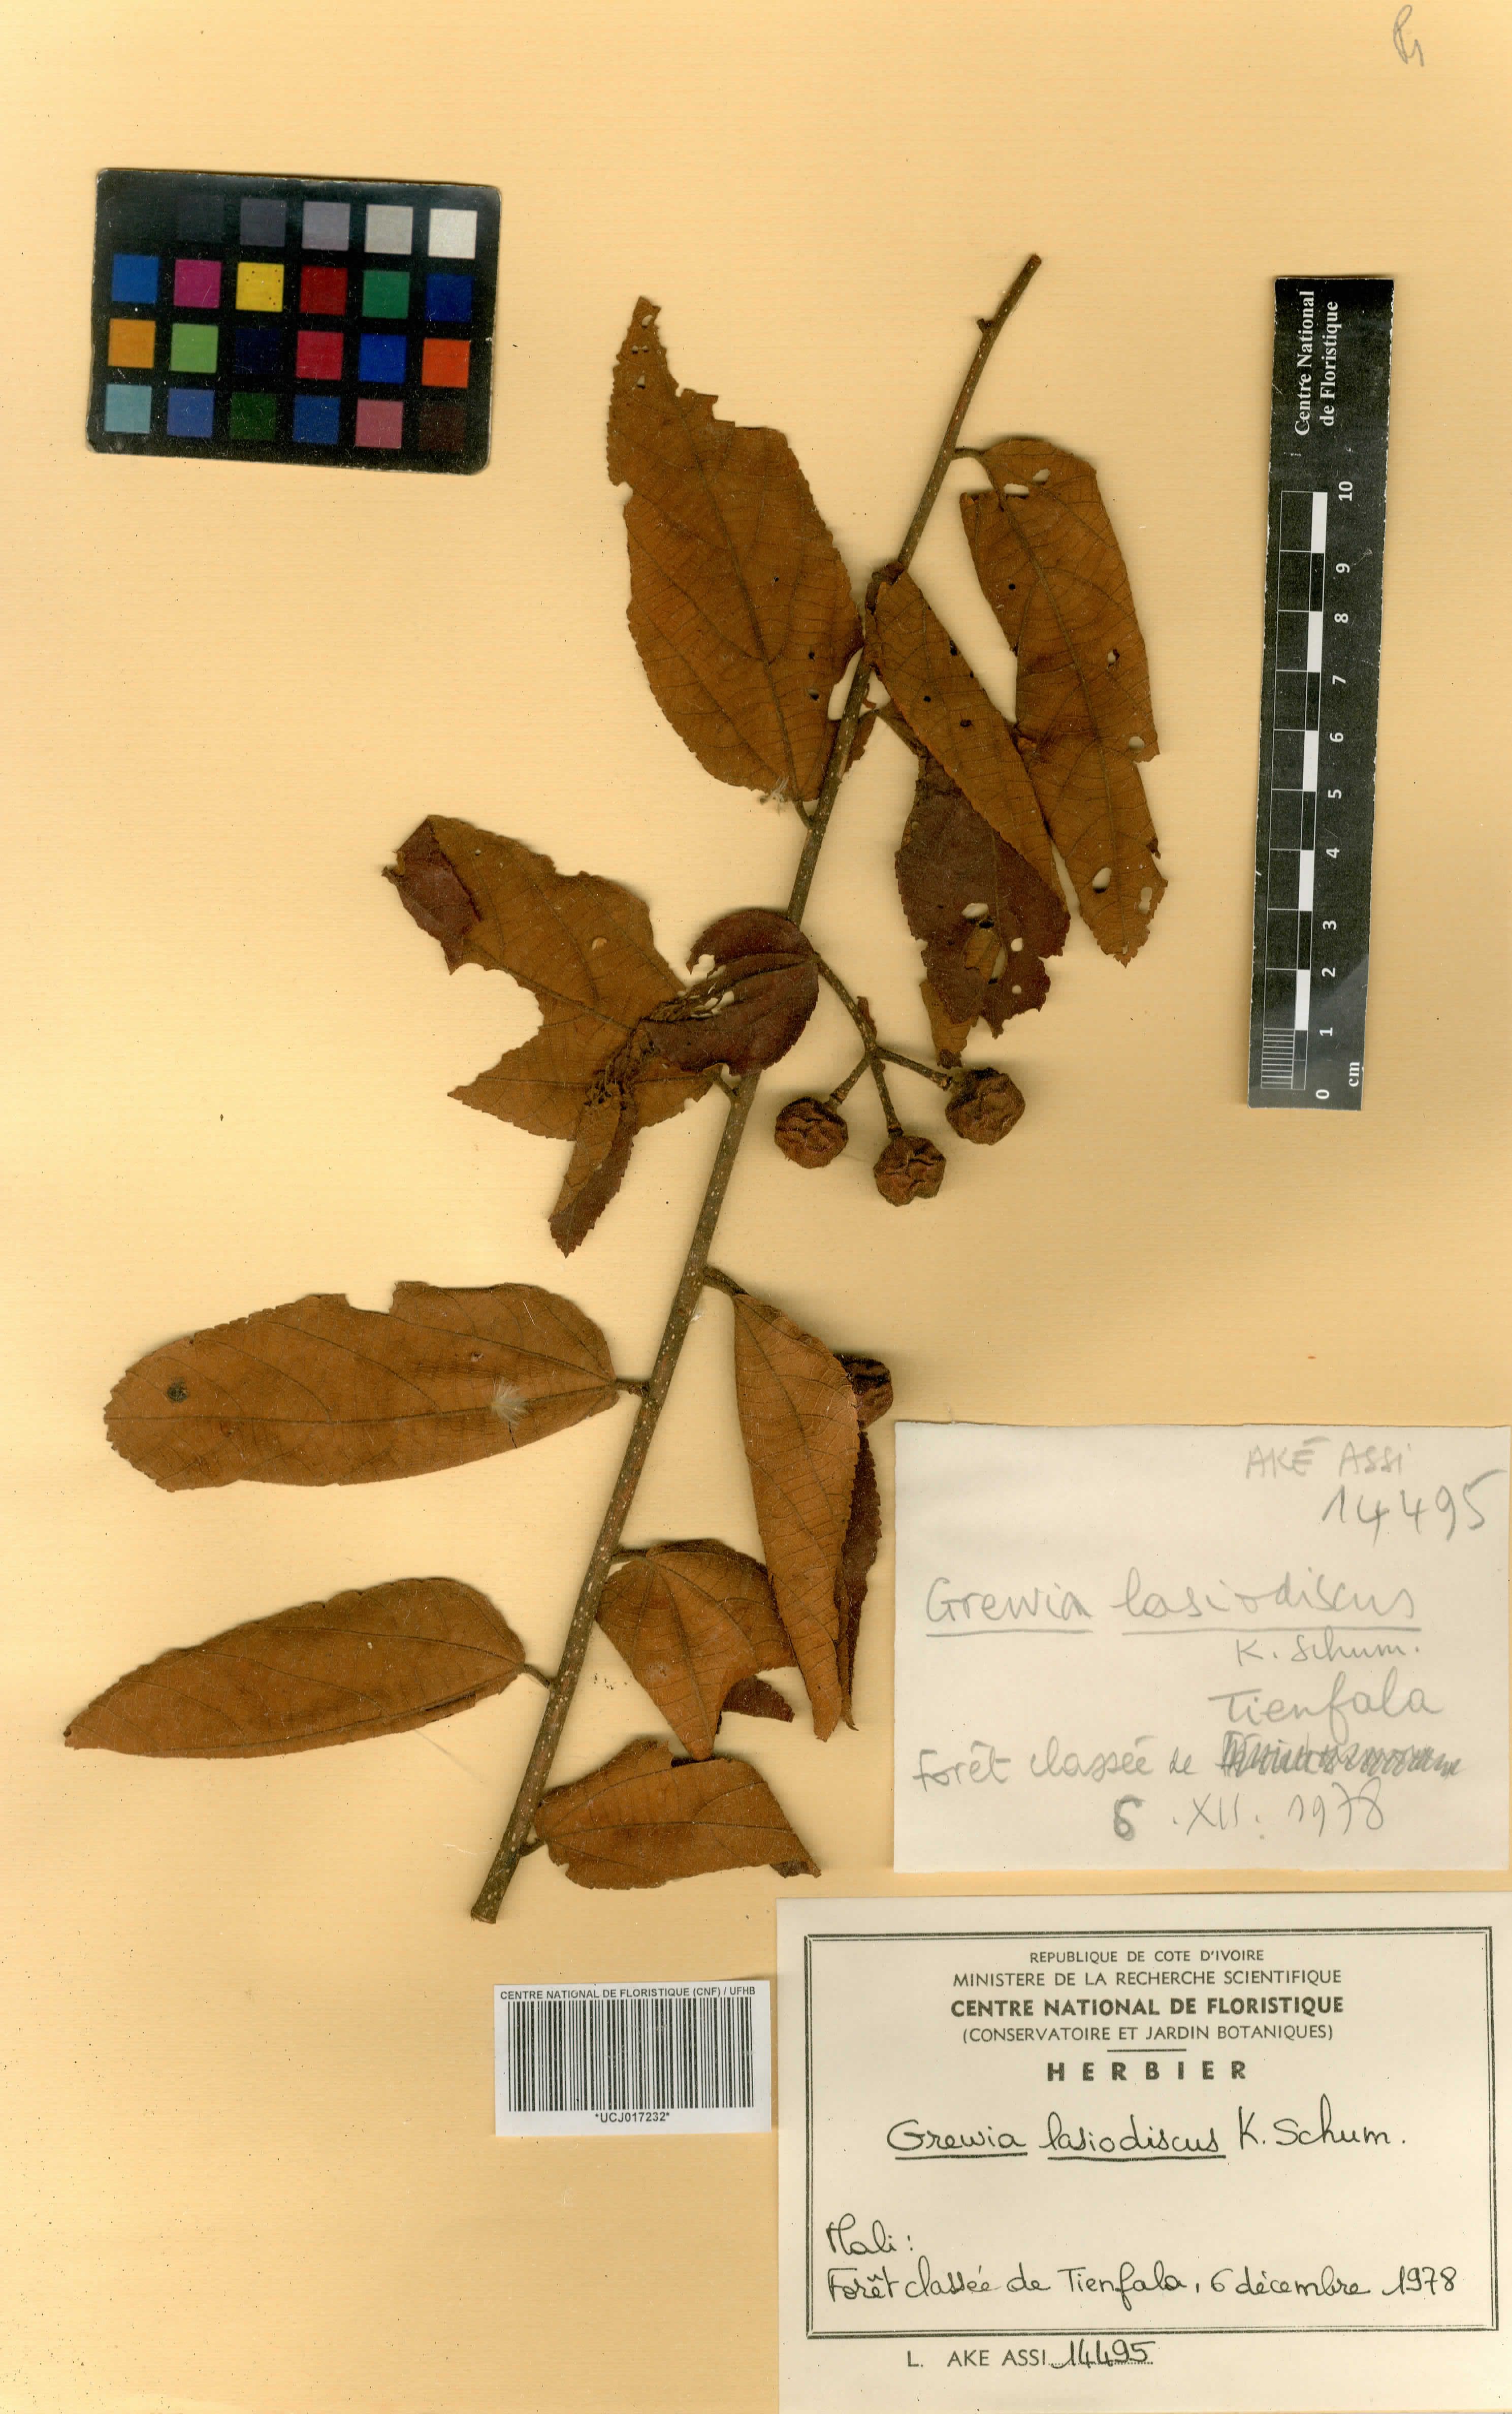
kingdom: Plantae
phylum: Tracheophyta
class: Magnoliopsida
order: Malvales
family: Malvaceae
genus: Grewia
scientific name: Grewia lasiodiscus
